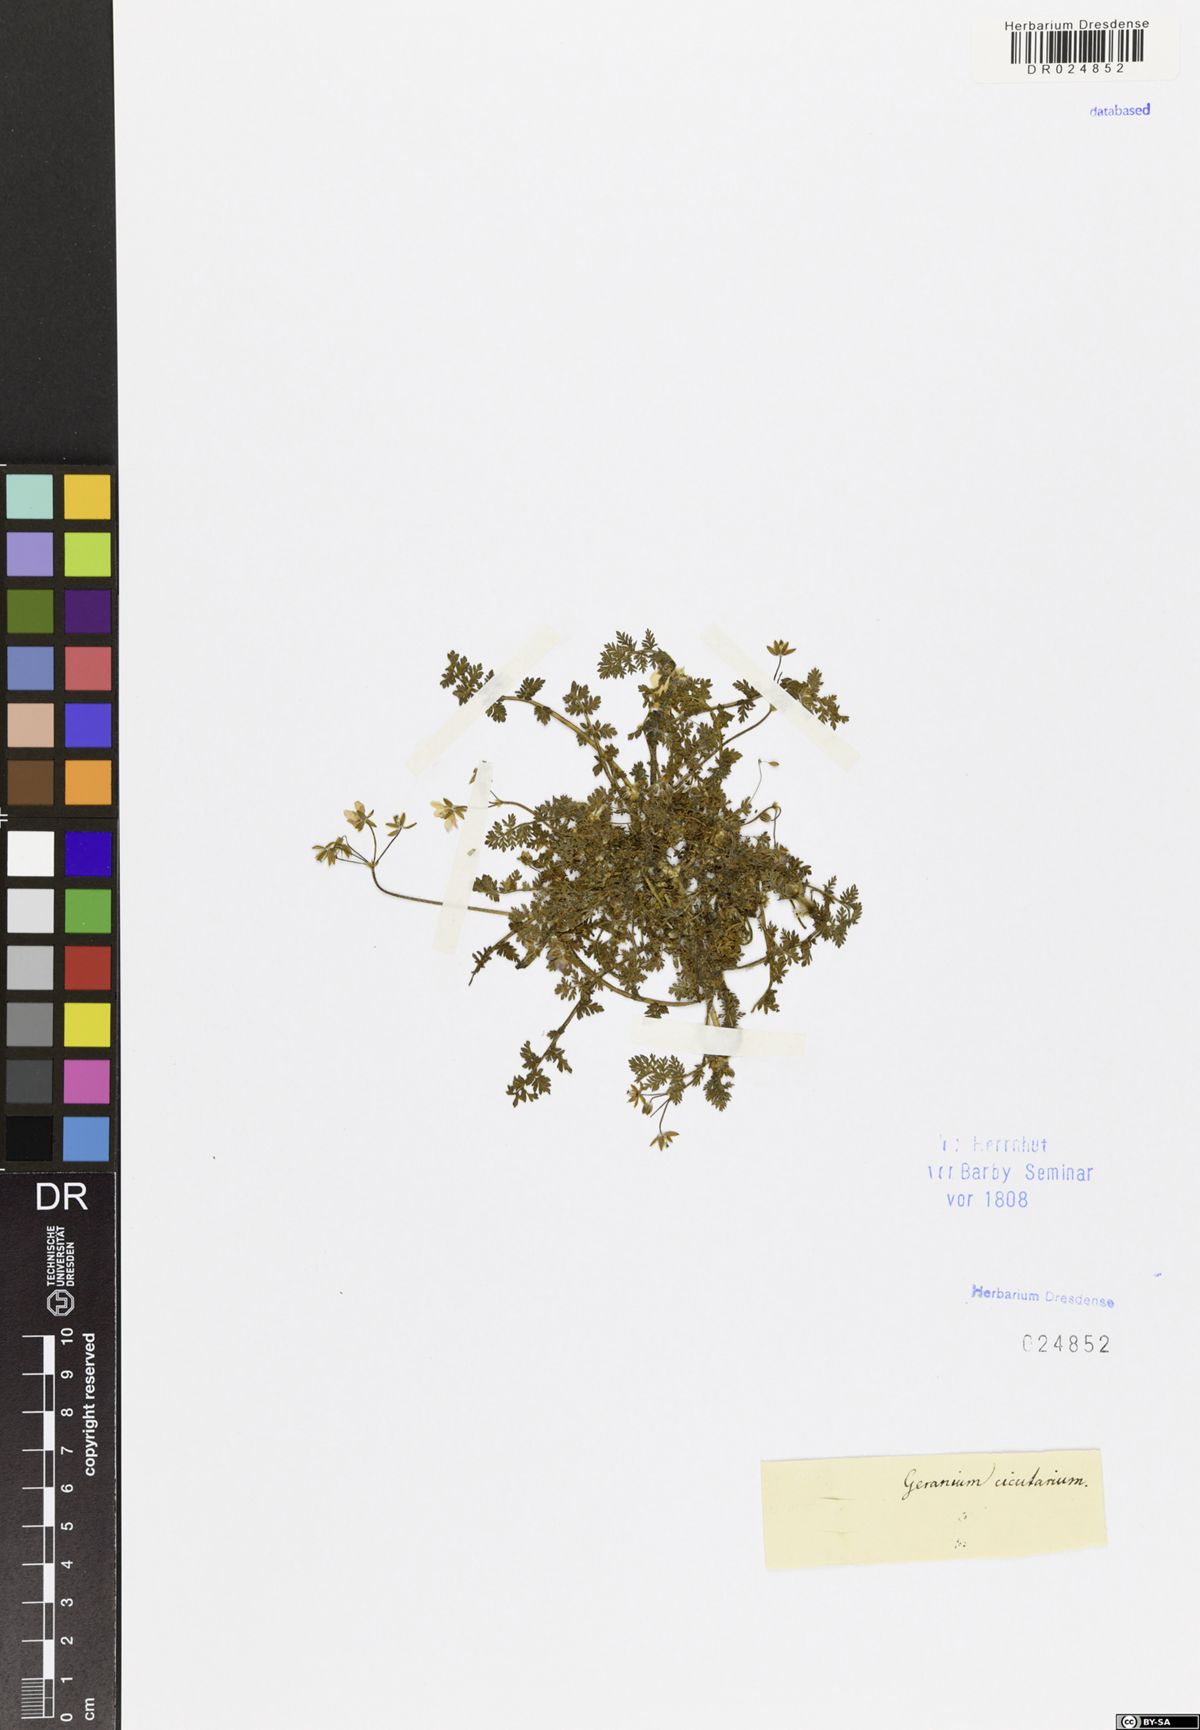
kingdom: Plantae
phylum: Tracheophyta
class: Magnoliopsida
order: Geraniales
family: Geraniaceae
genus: Erodium
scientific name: Erodium cicutarium
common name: Common stork's-bill
